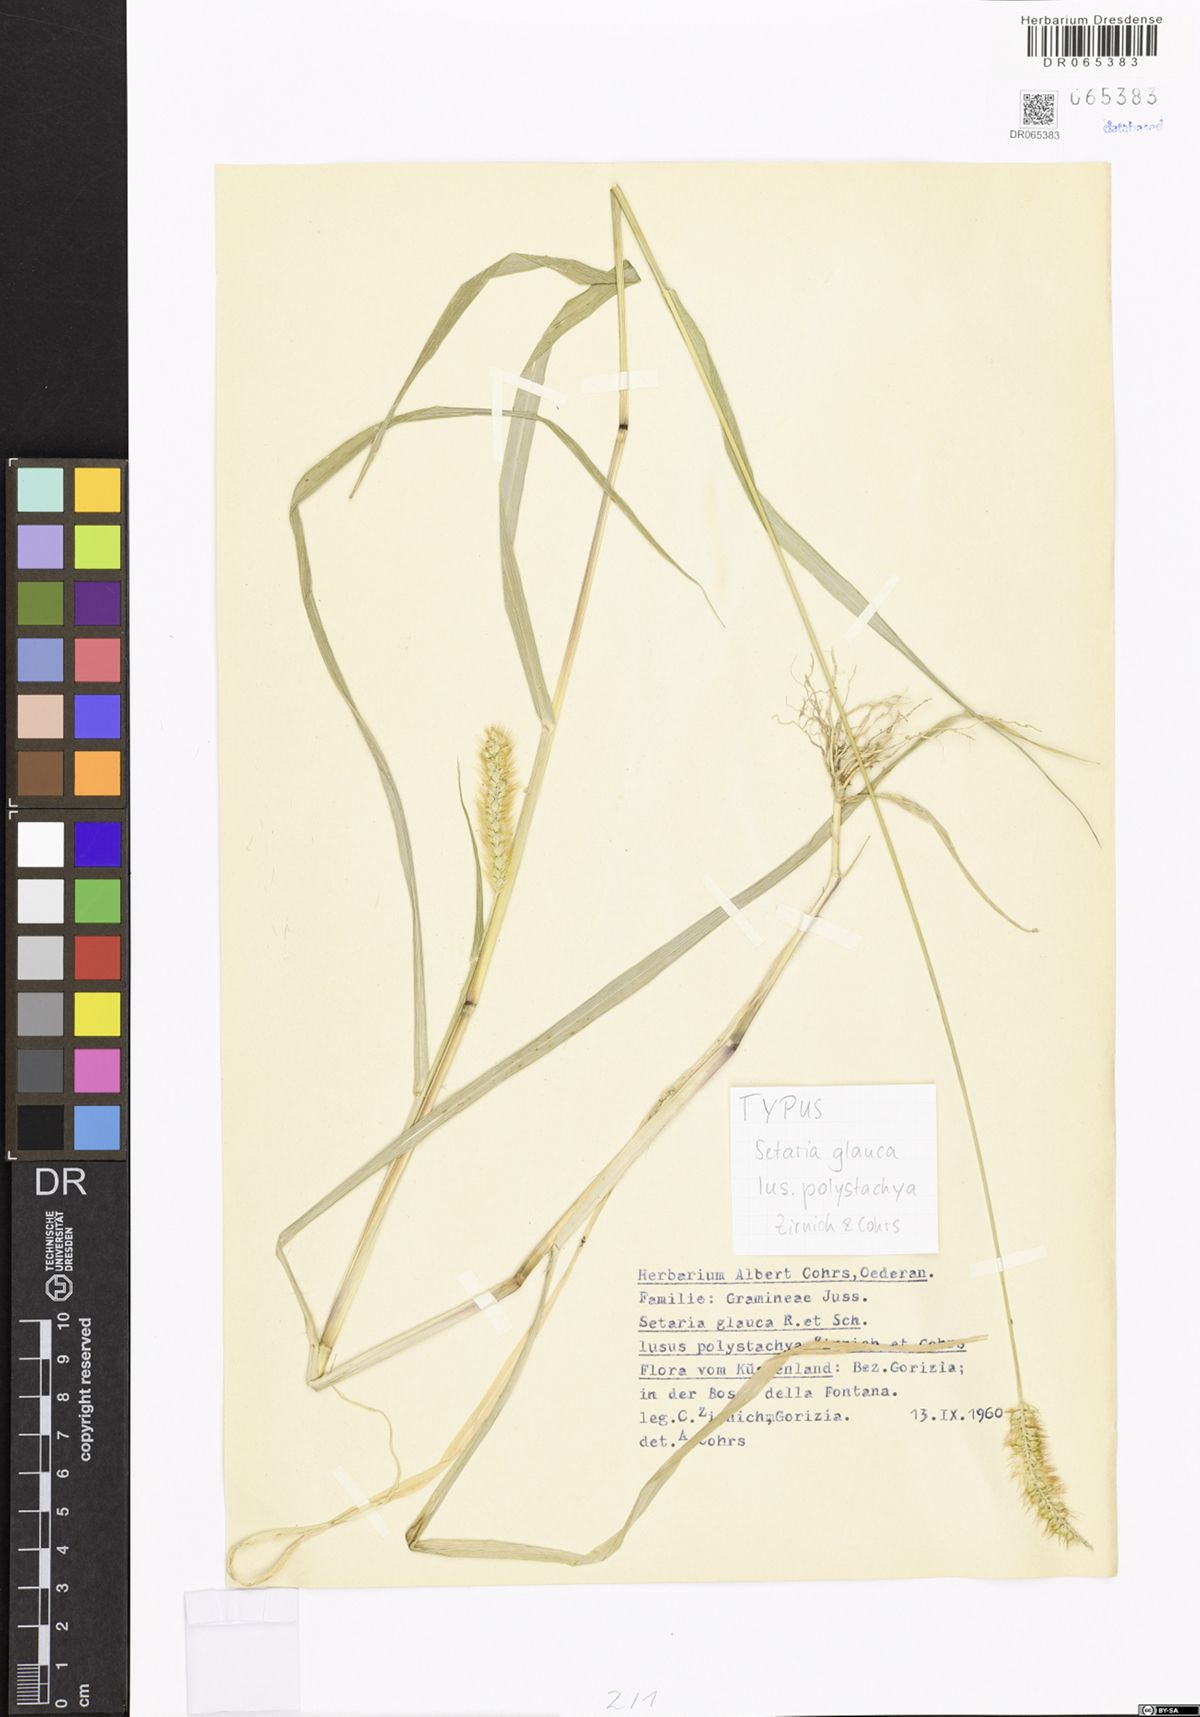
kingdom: Plantae
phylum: Tracheophyta
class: Liliopsida
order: Poales
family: Poaceae
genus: Setaria
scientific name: Setaria pumila
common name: Yellow bristle-grass
